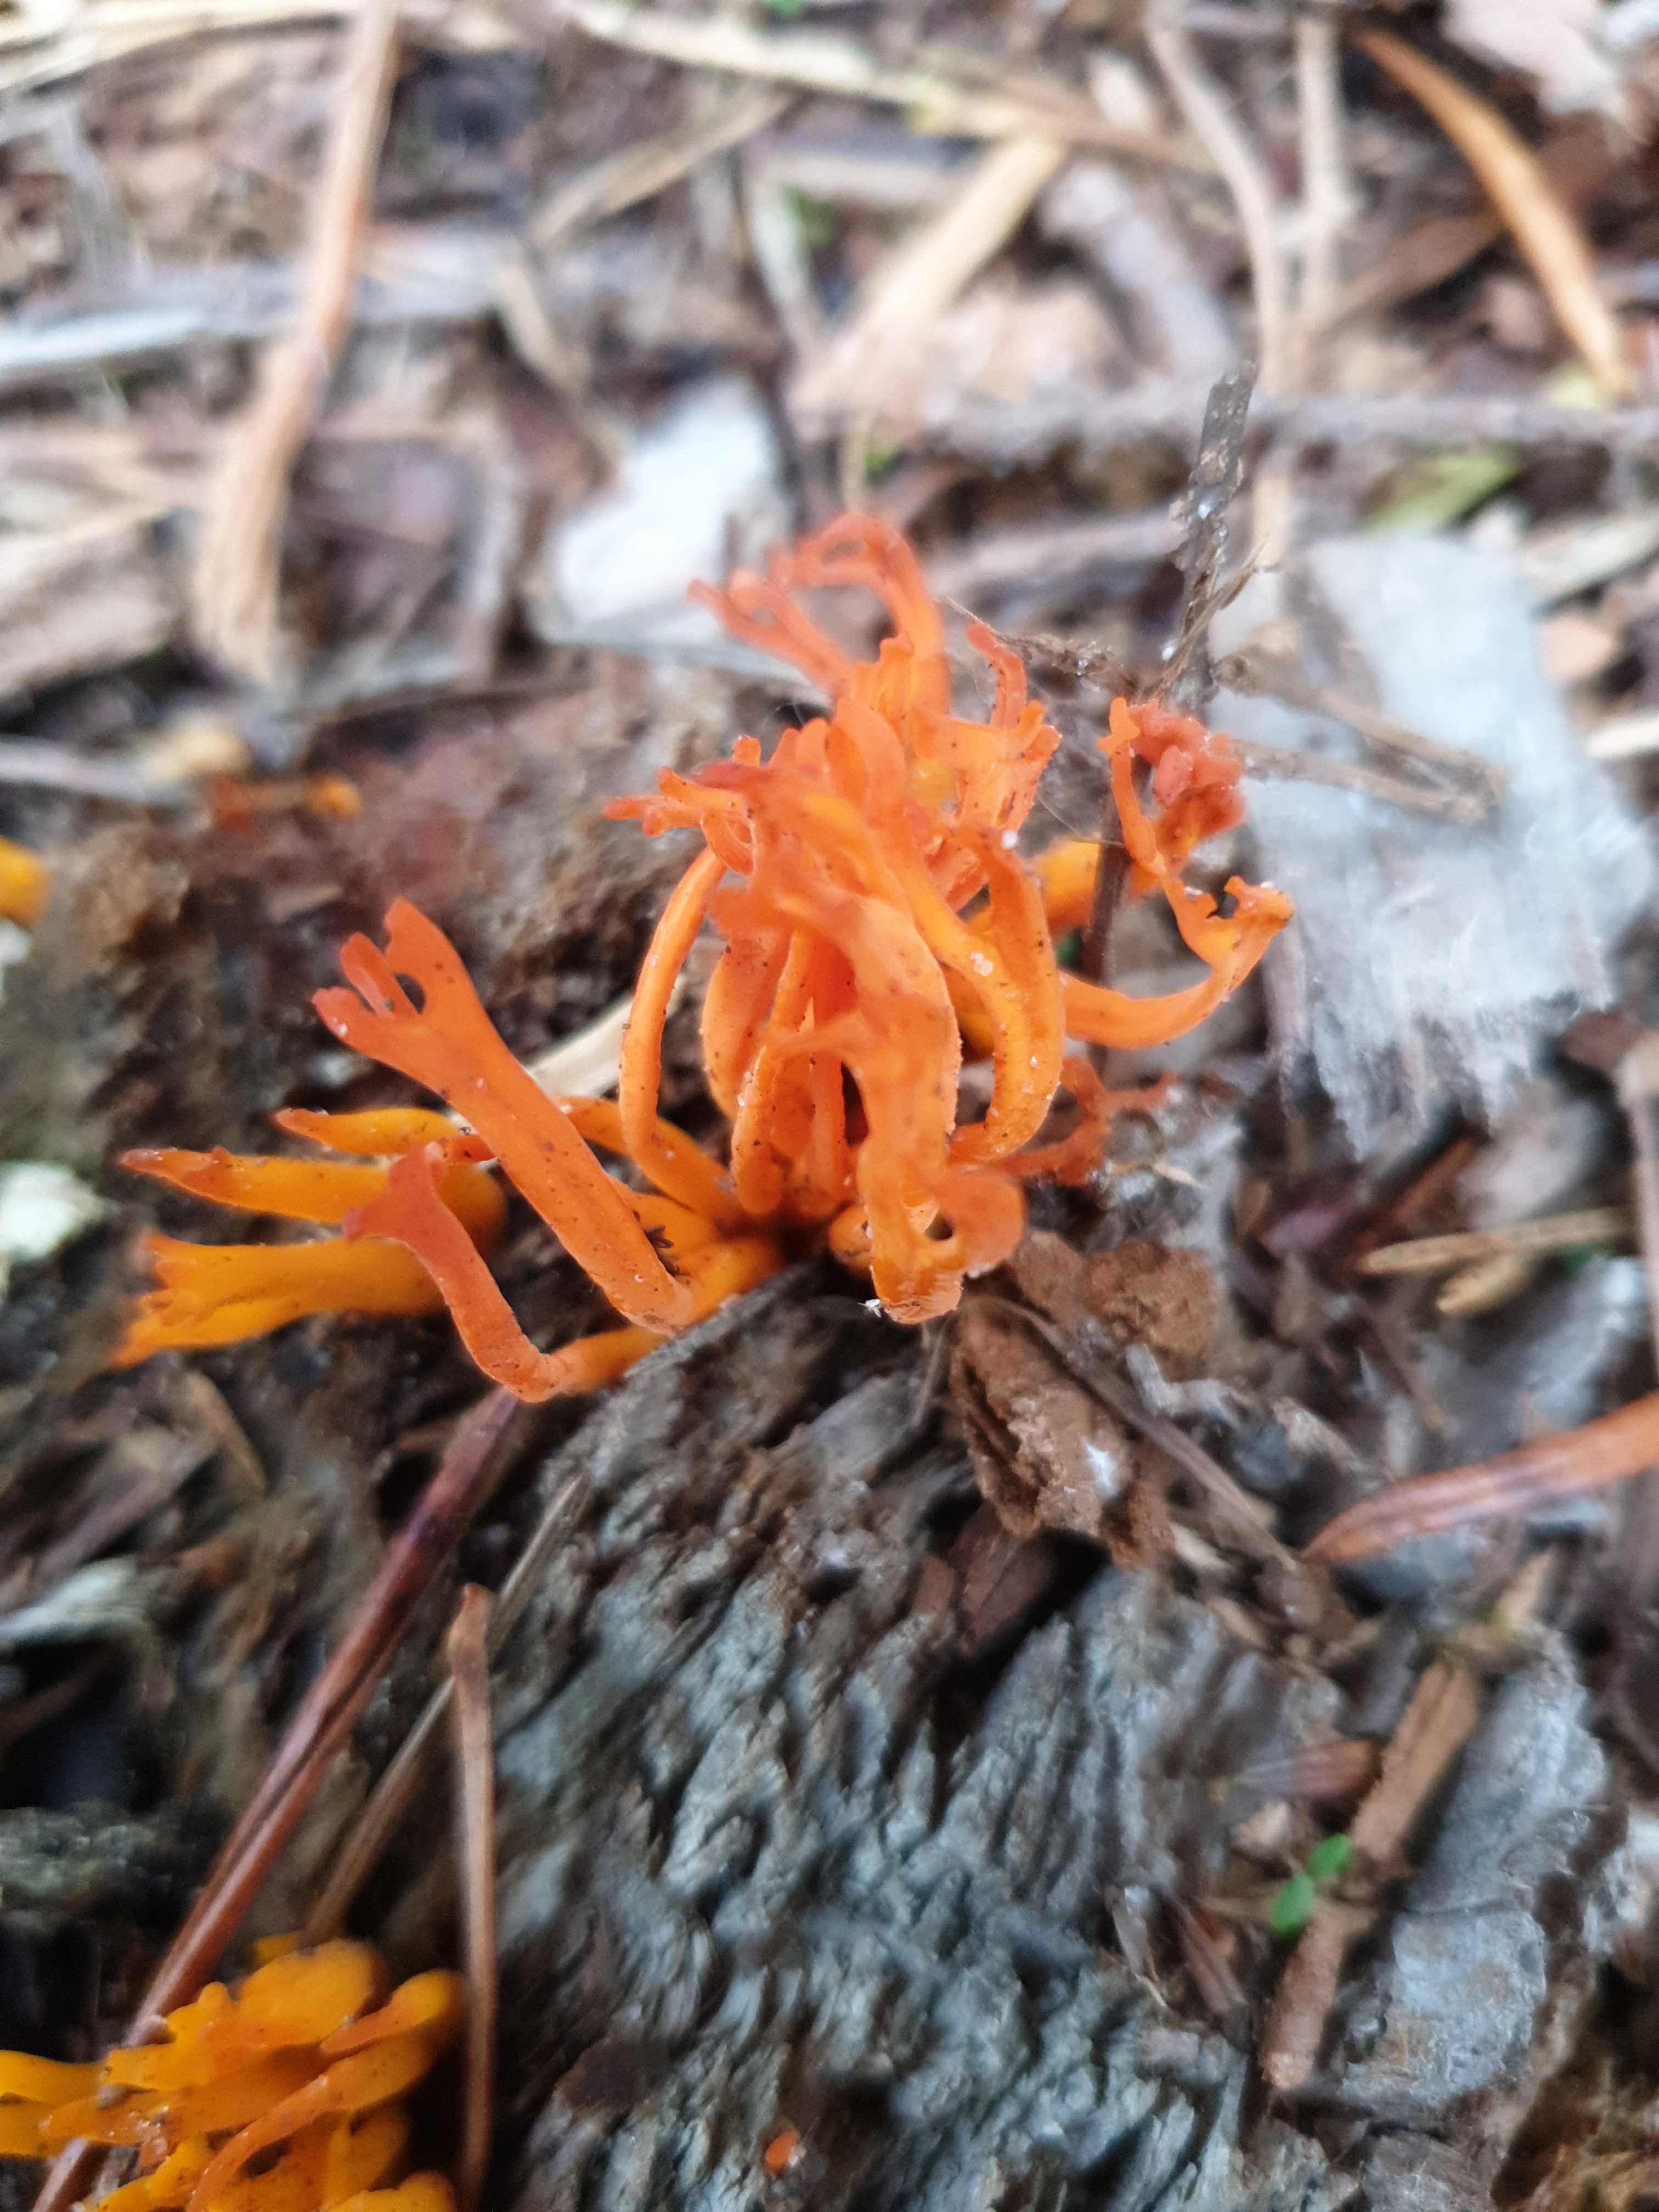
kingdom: Fungi
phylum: Basidiomycota
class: Dacrymycetes
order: Dacrymycetales
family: Dacrymycetaceae
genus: Calocera
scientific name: Calocera viscosa
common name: almindelig guldgaffel
